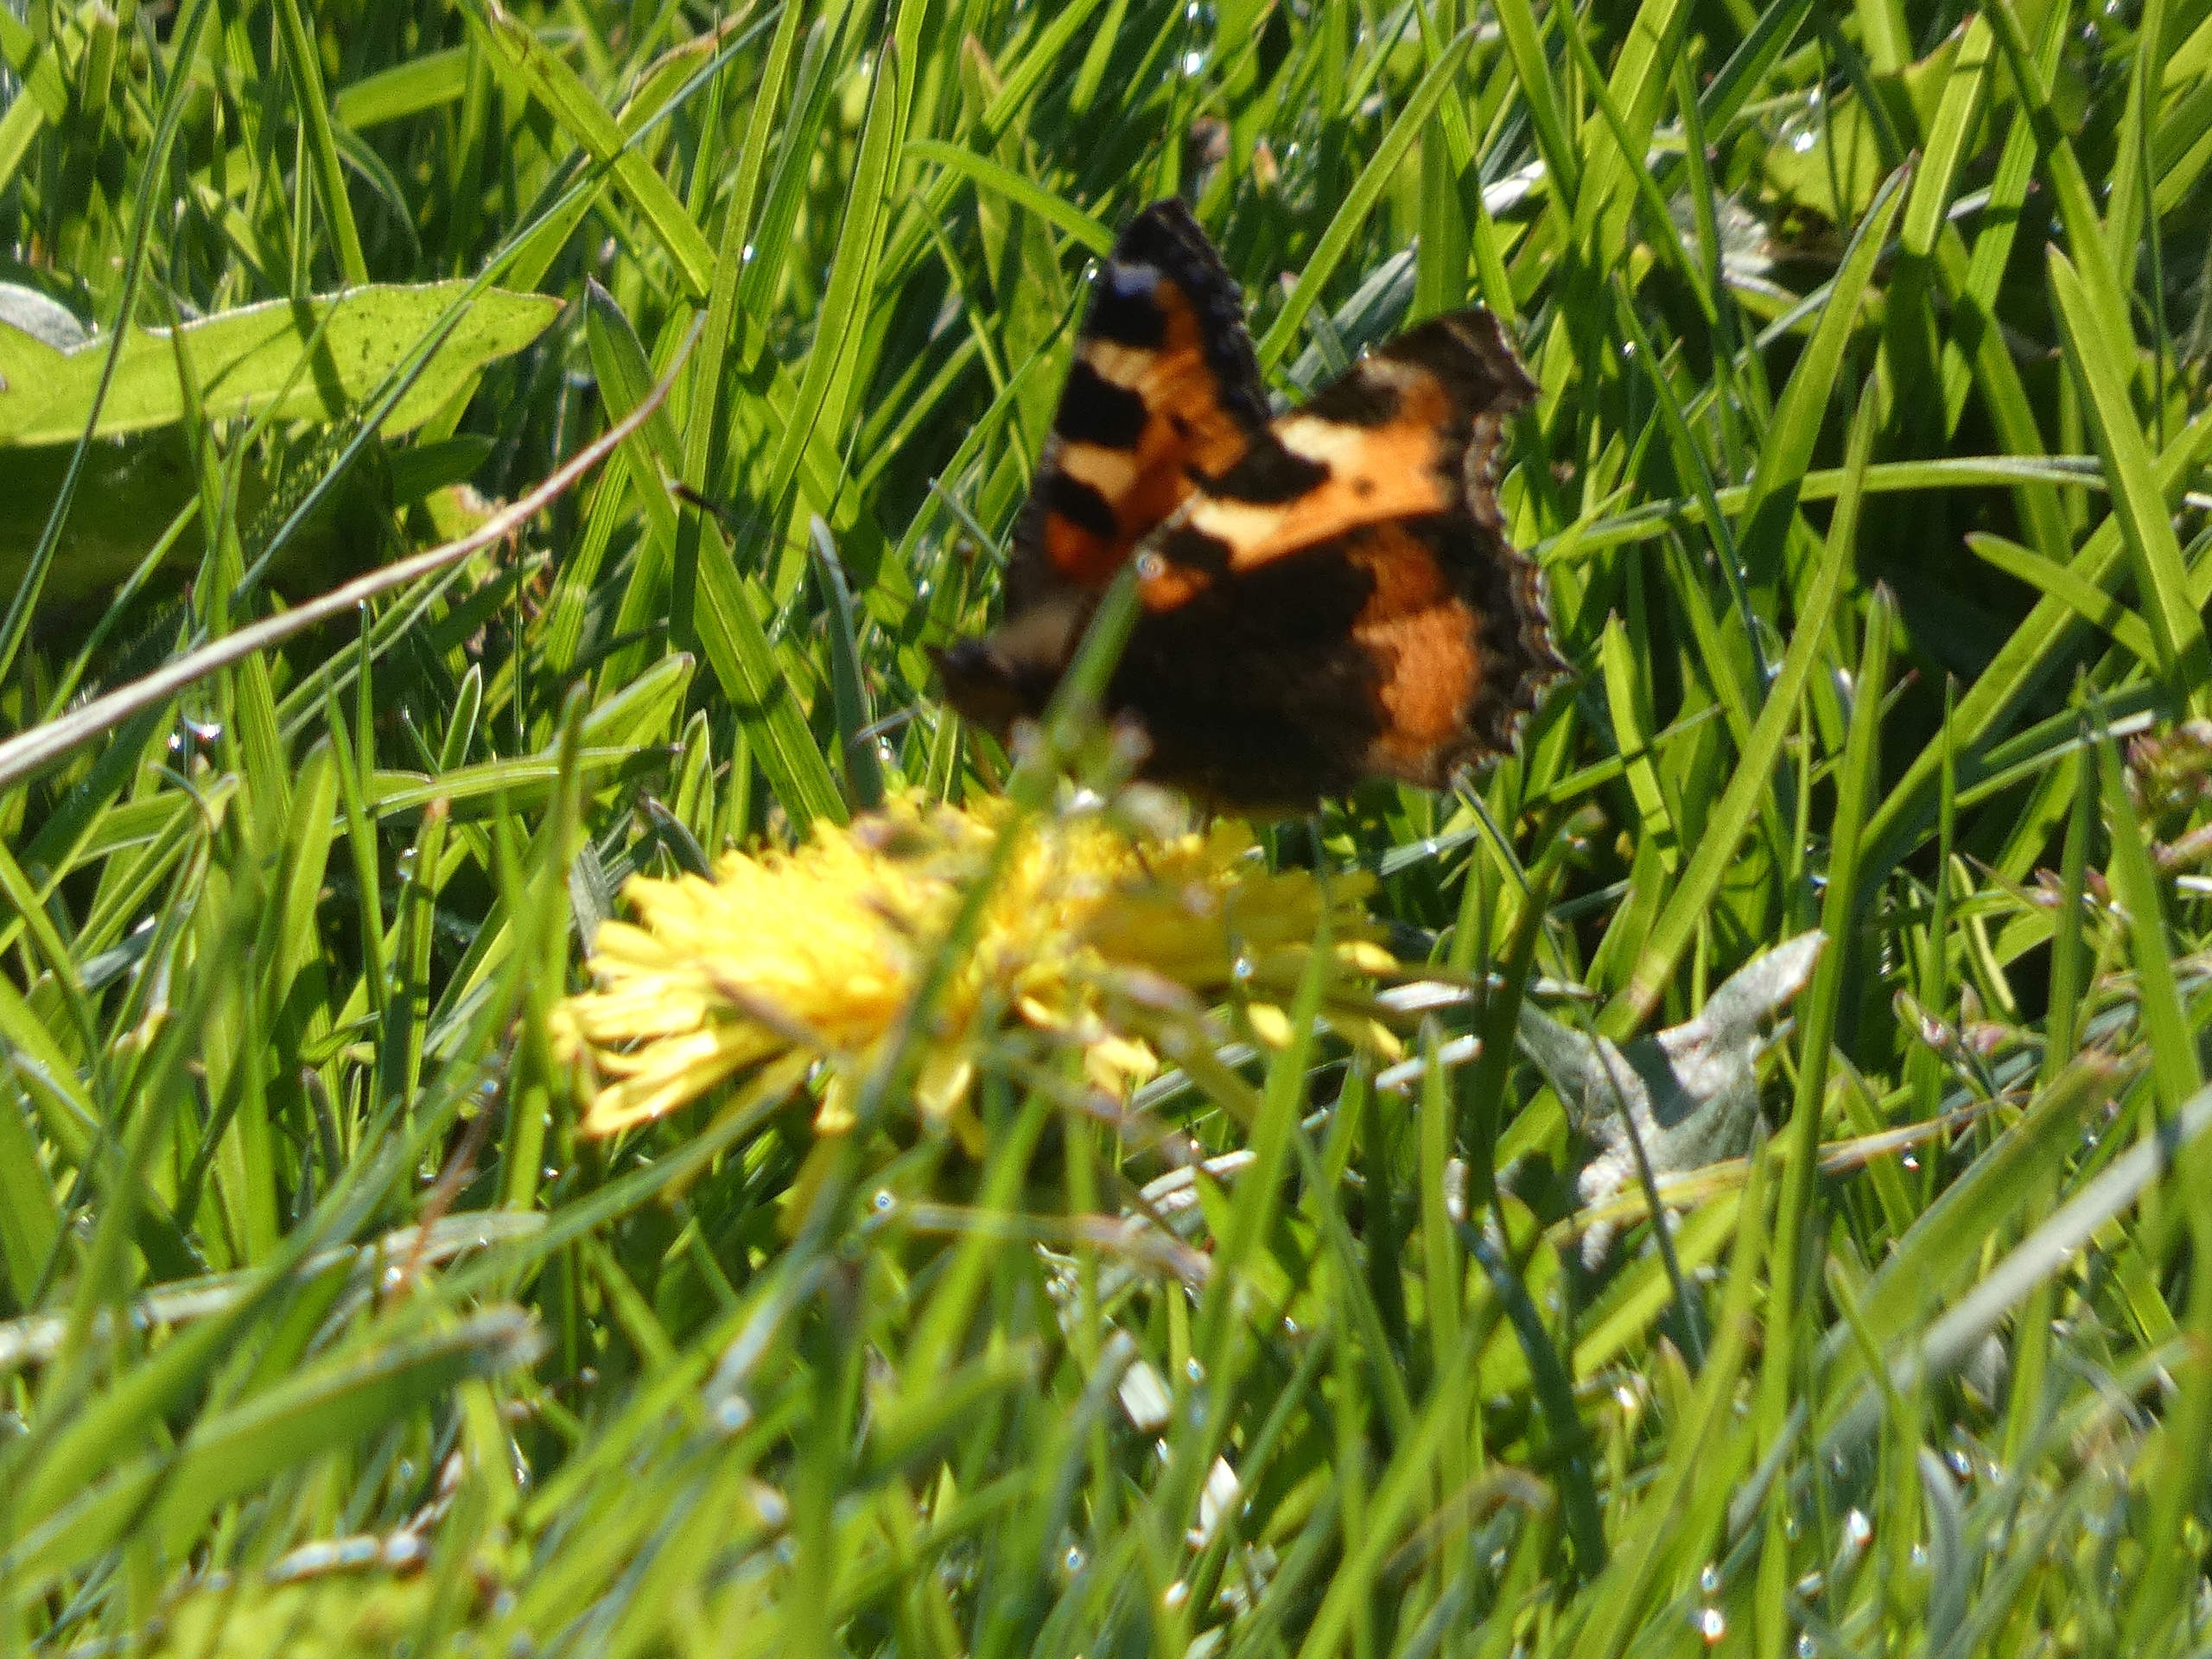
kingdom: Animalia
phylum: Arthropoda
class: Insecta
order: Lepidoptera
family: Nymphalidae
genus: Aglais
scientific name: Aglais urticae
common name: Nældens takvinge
